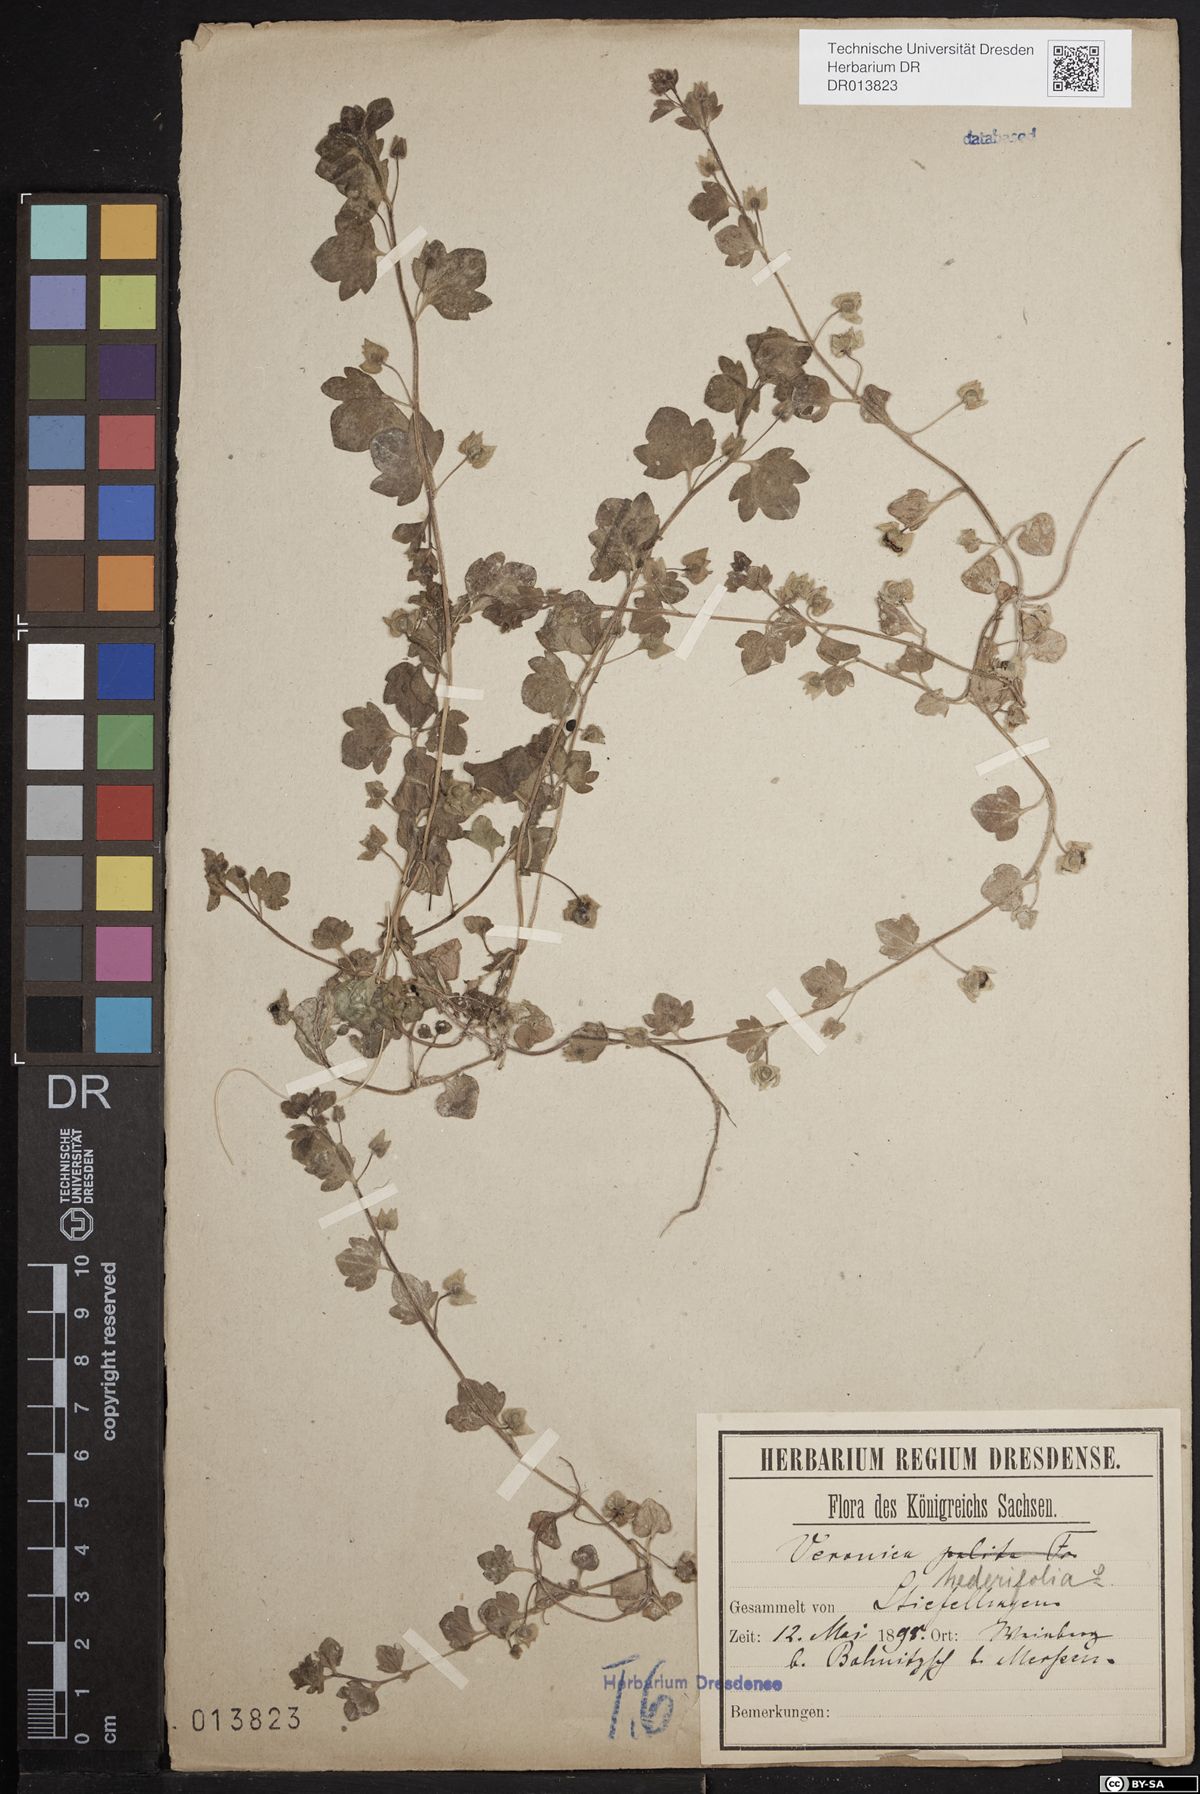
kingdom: Plantae
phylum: Tracheophyta
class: Magnoliopsida
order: Lamiales
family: Plantaginaceae
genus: Veronica
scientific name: Veronica hederifolia
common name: Ivy-leaved speedwell
